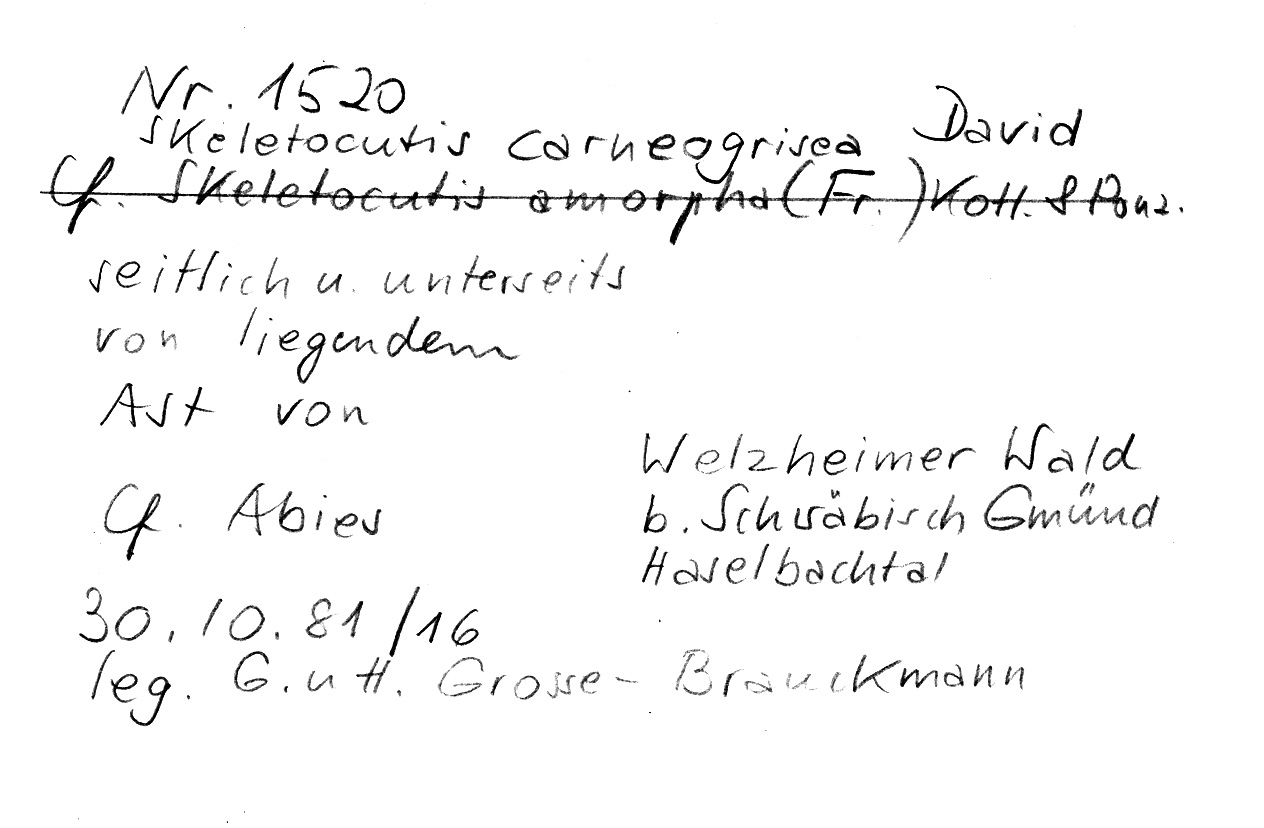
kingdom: Fungi
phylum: Basidiomycota
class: Agaricomycetes
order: Polyporales
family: Incrustoporiaceae
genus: Skeletocutis
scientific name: Skeletocutis carneogrisea
